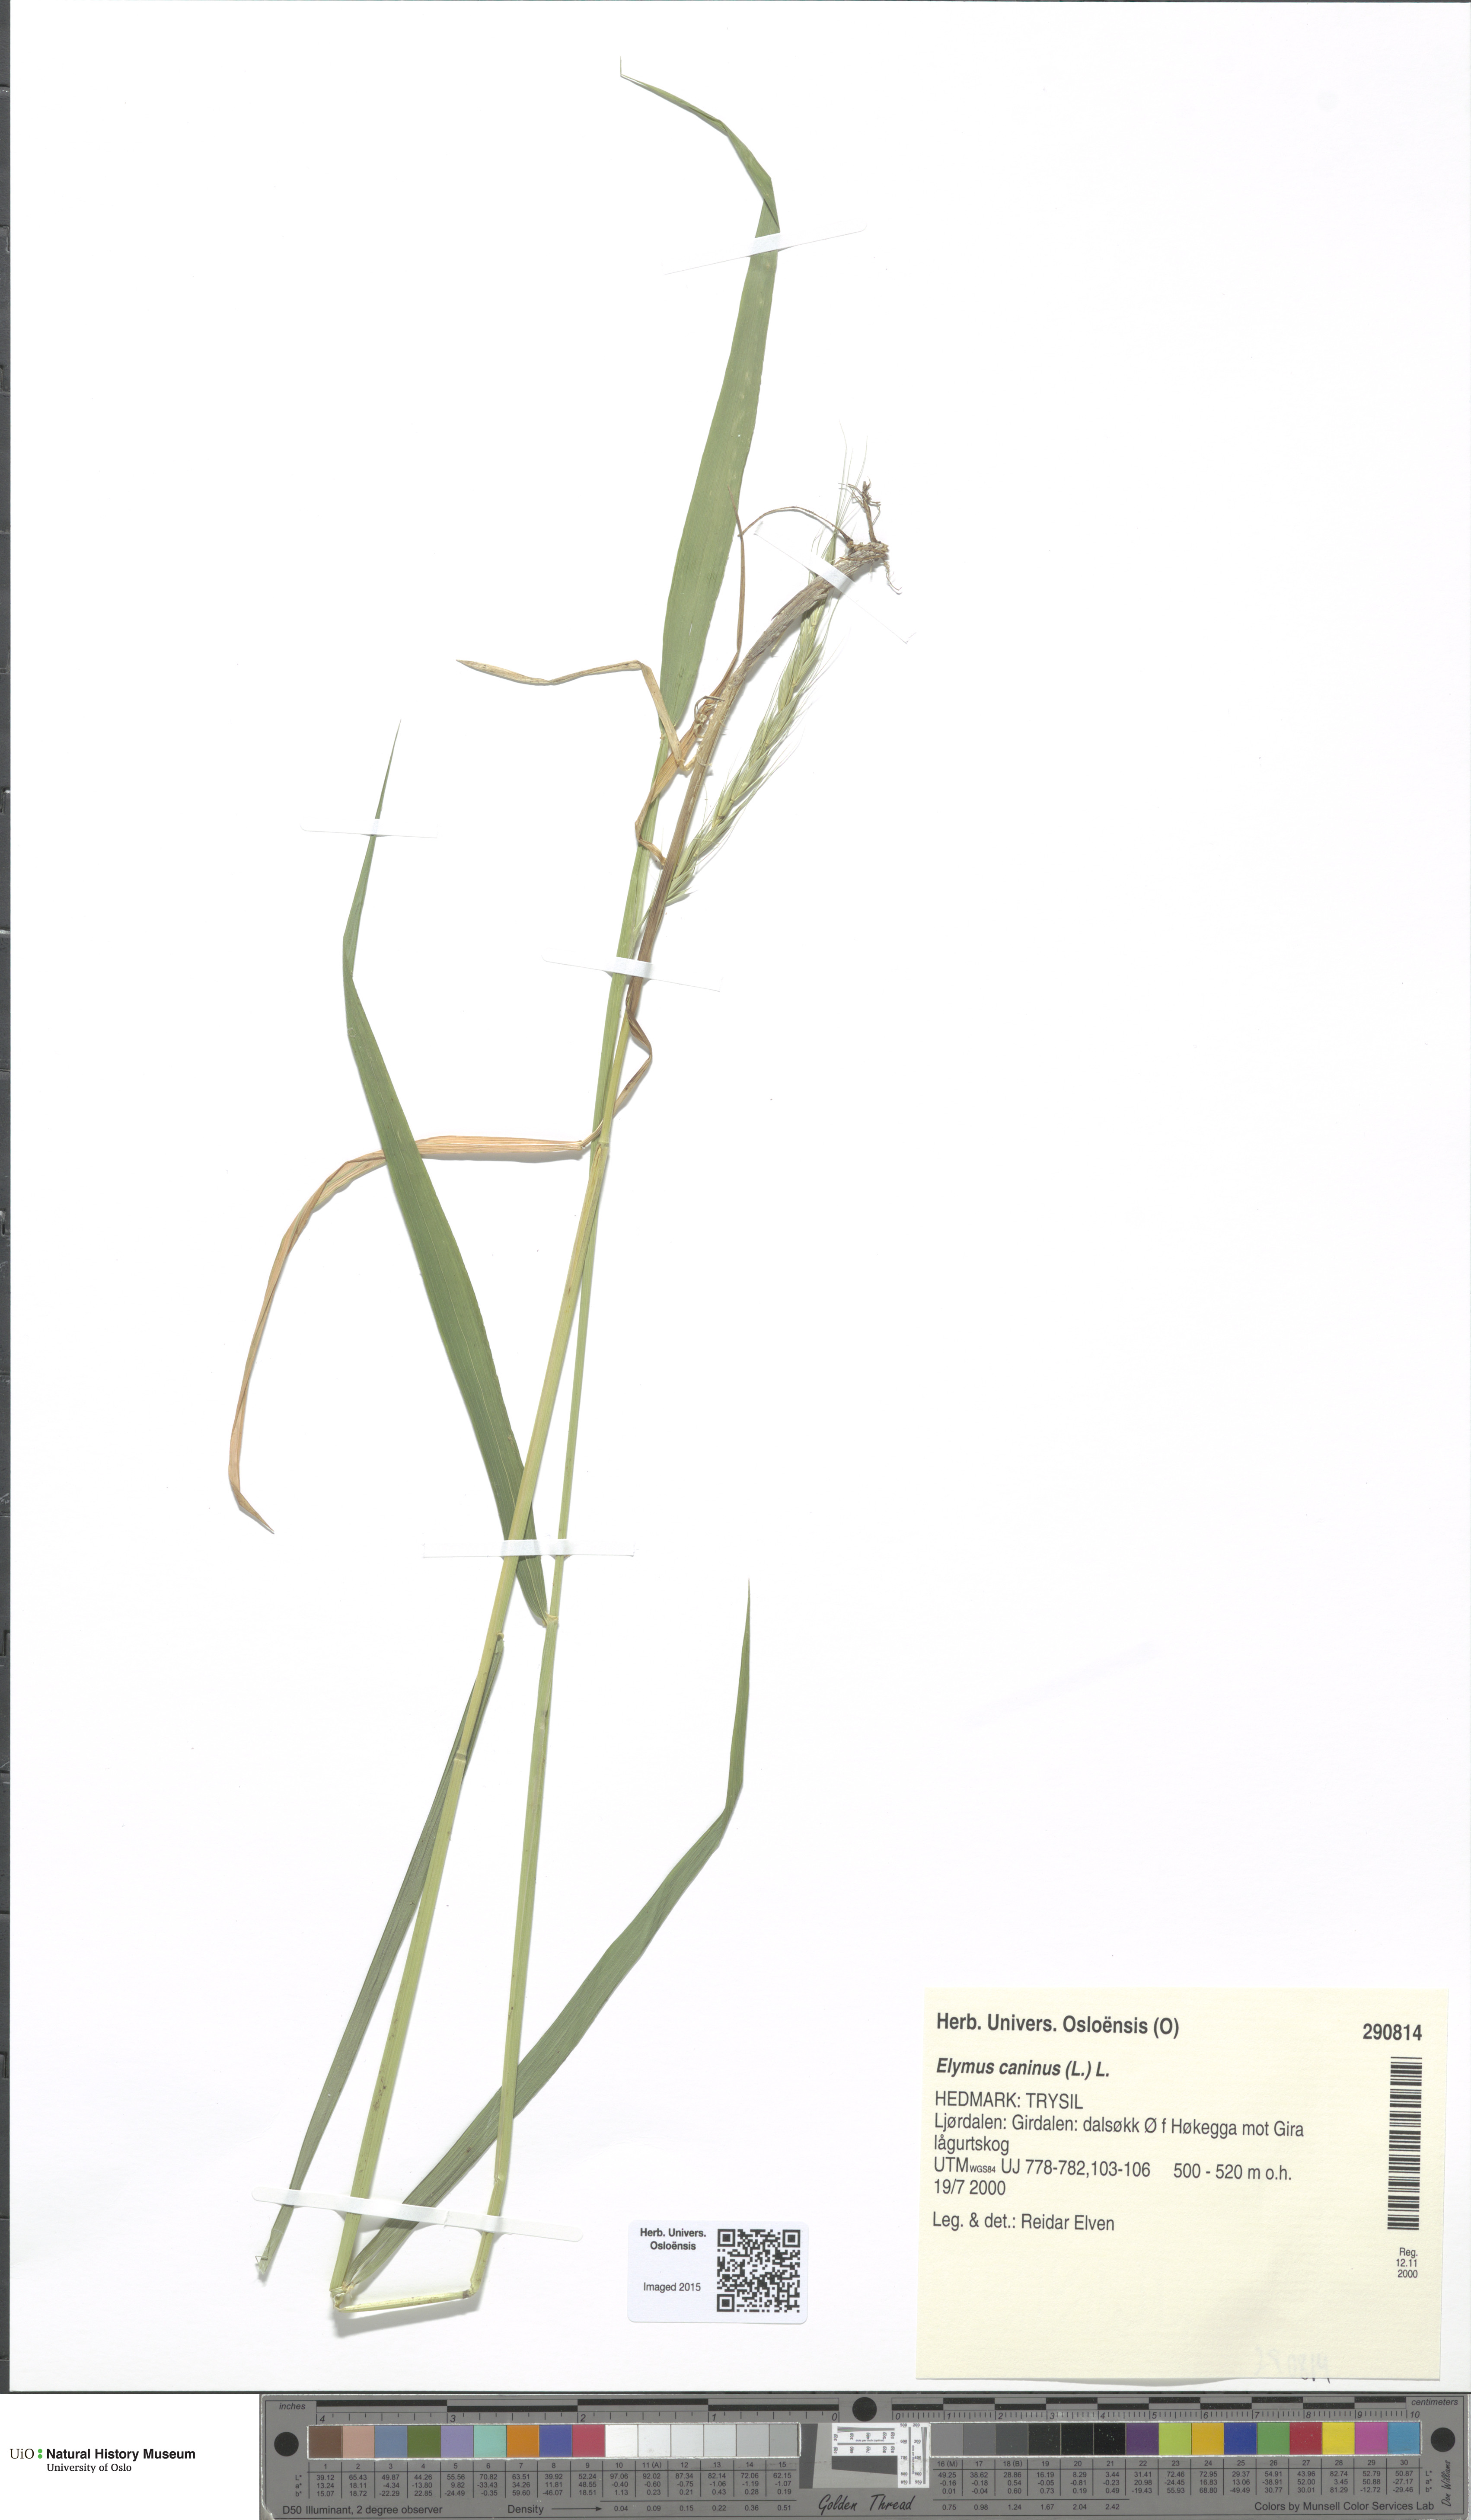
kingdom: Plantae
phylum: Tracheophyta
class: Liliopsida
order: Poales
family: Poaceae
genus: Elymus
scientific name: Elymus caninus
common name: Bearded couch
